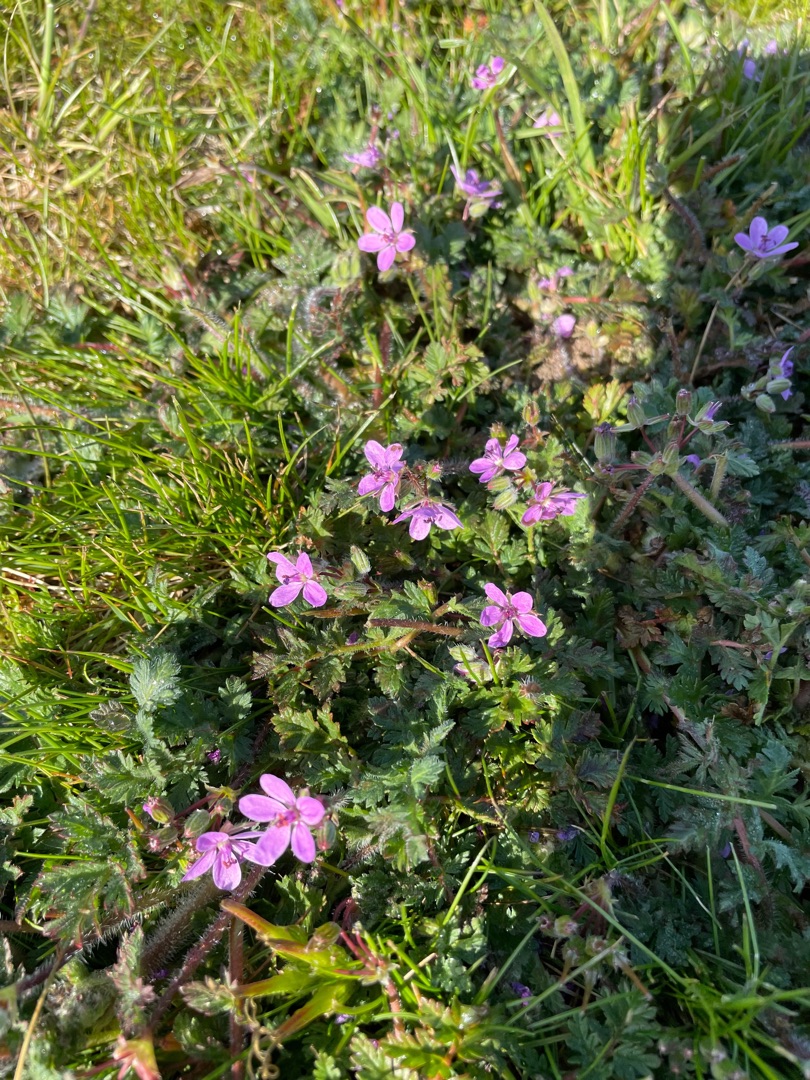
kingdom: Plantae
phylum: Tracheophyta
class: Magnoliopsida
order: Geraniales
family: Geraniaceae
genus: Erodium
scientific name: Erodium cicutarium
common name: Hejrenæb
